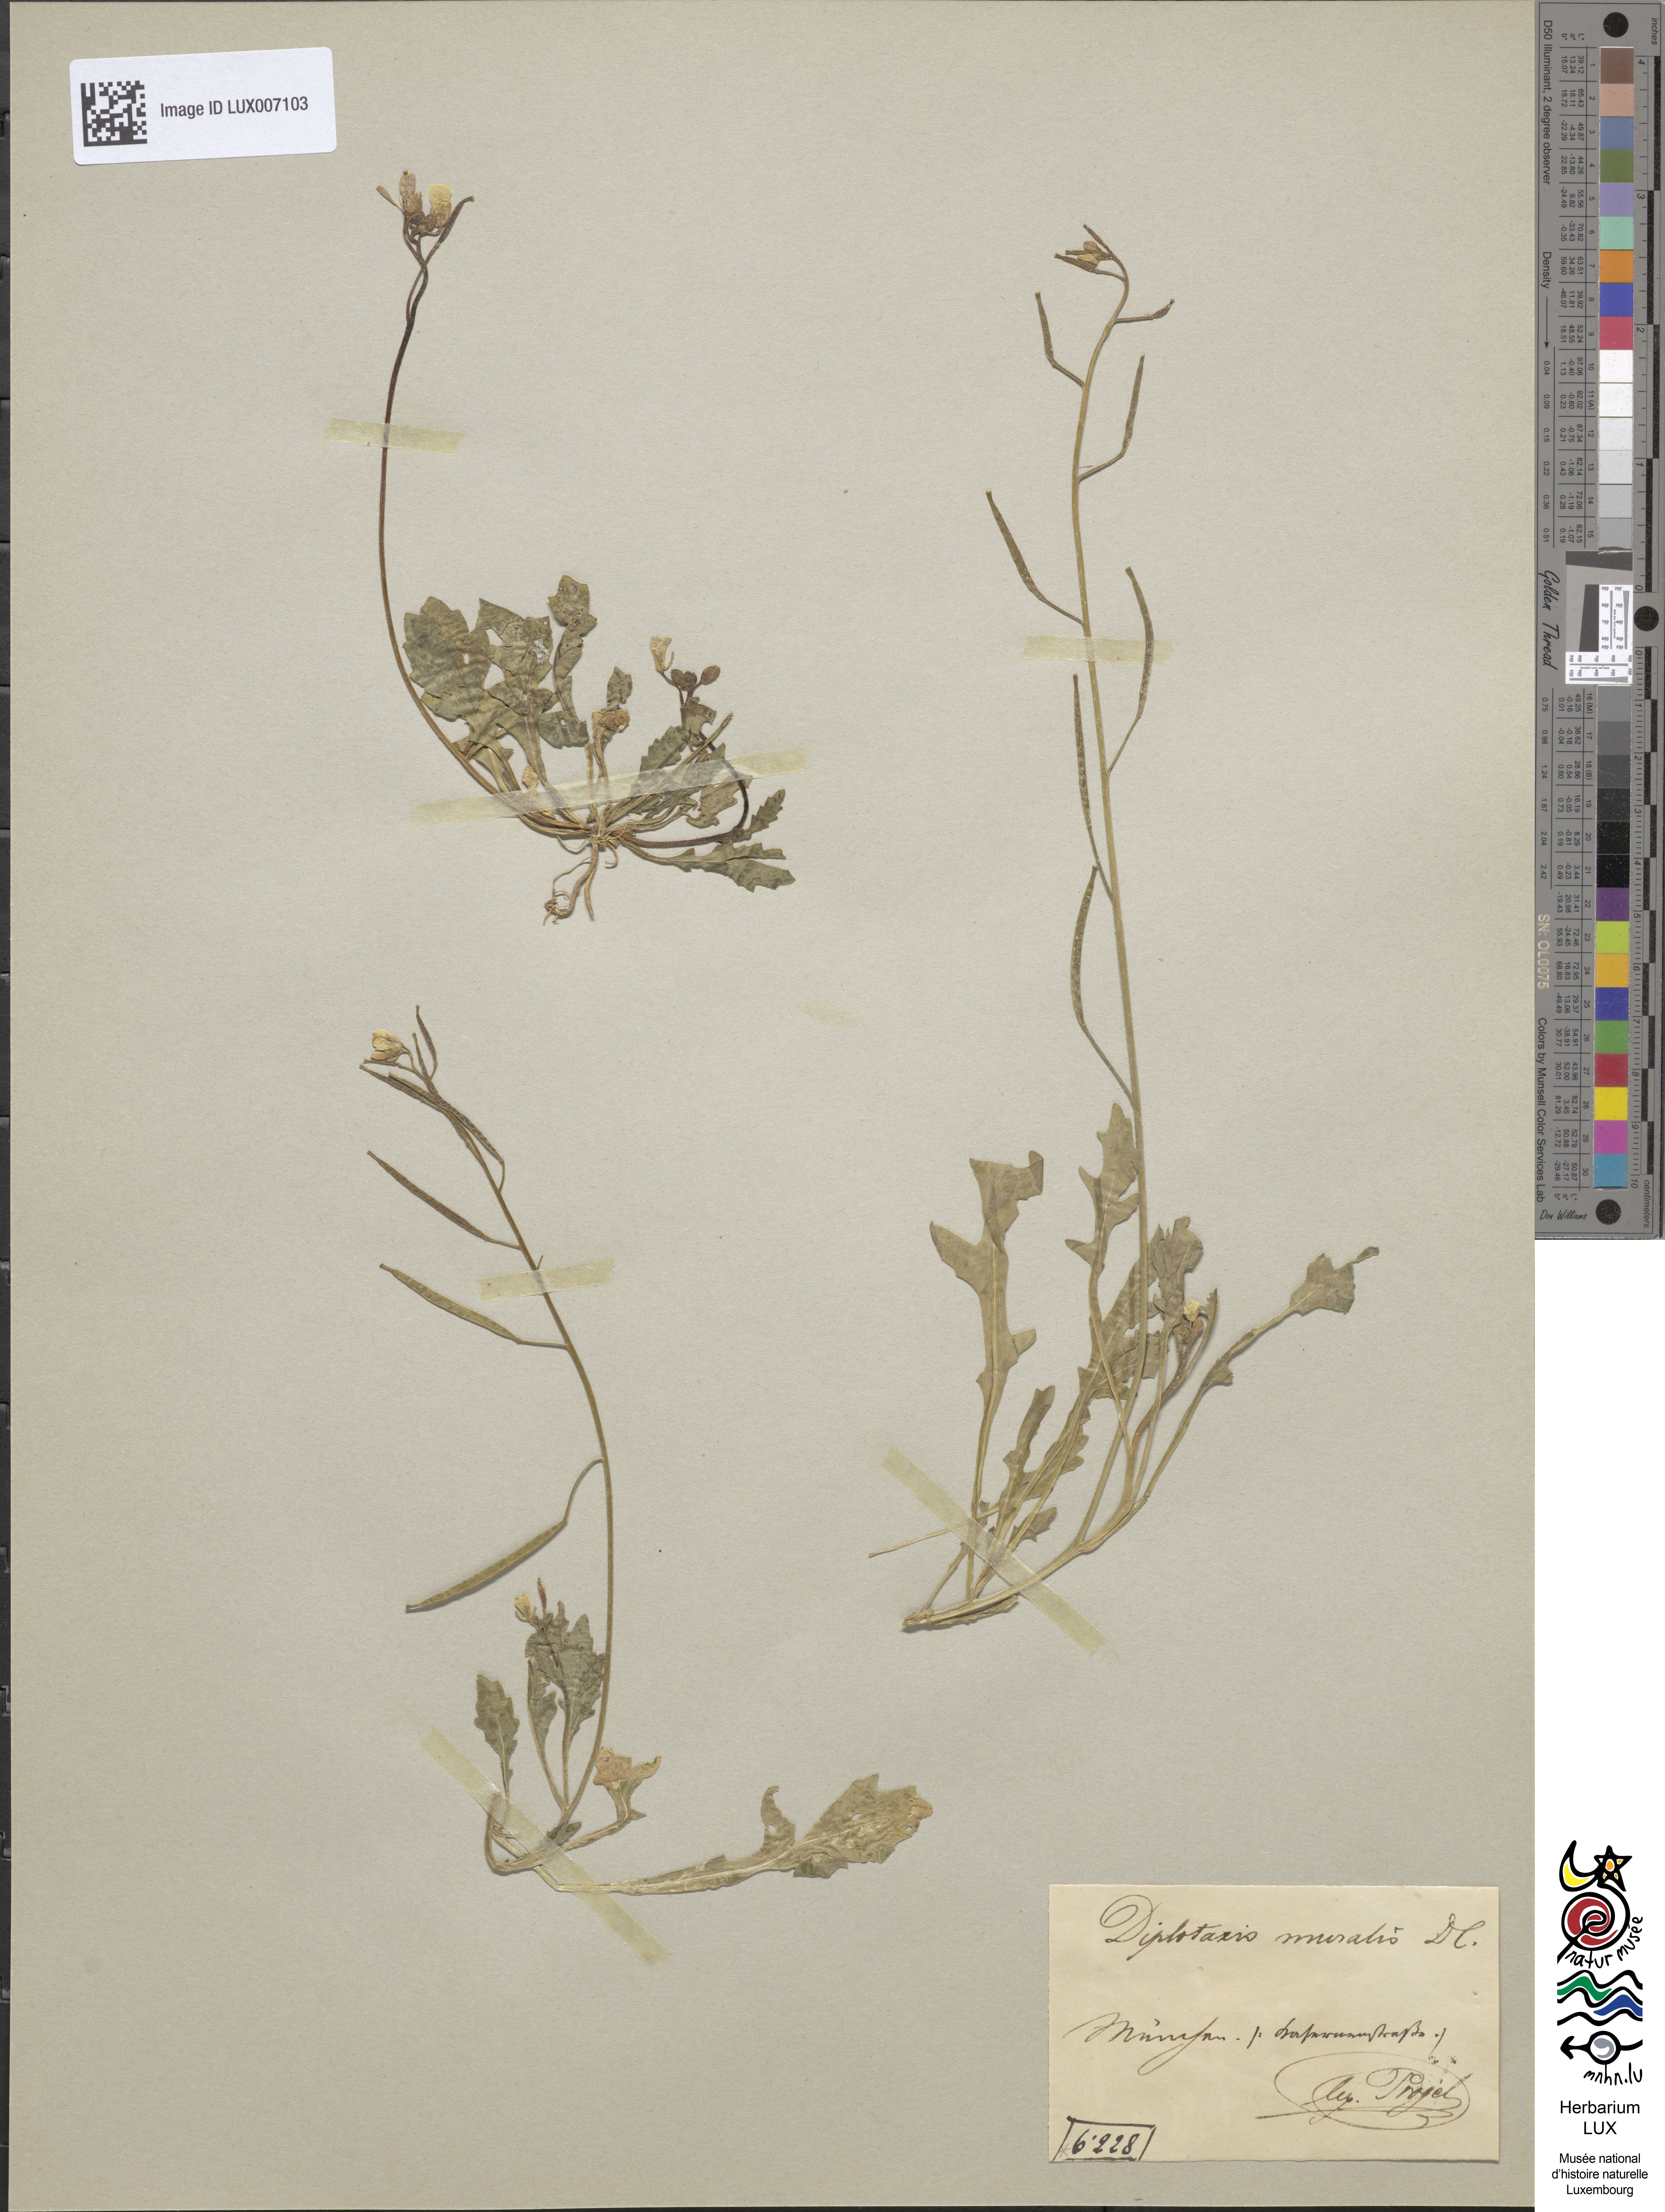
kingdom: Plantae
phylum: Tracheophyta
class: Magnoliopsida
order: Brassicales
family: Brassicaceae
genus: Diplotaxis
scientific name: Diplotaxis muralis
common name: Annual wall-rocket
